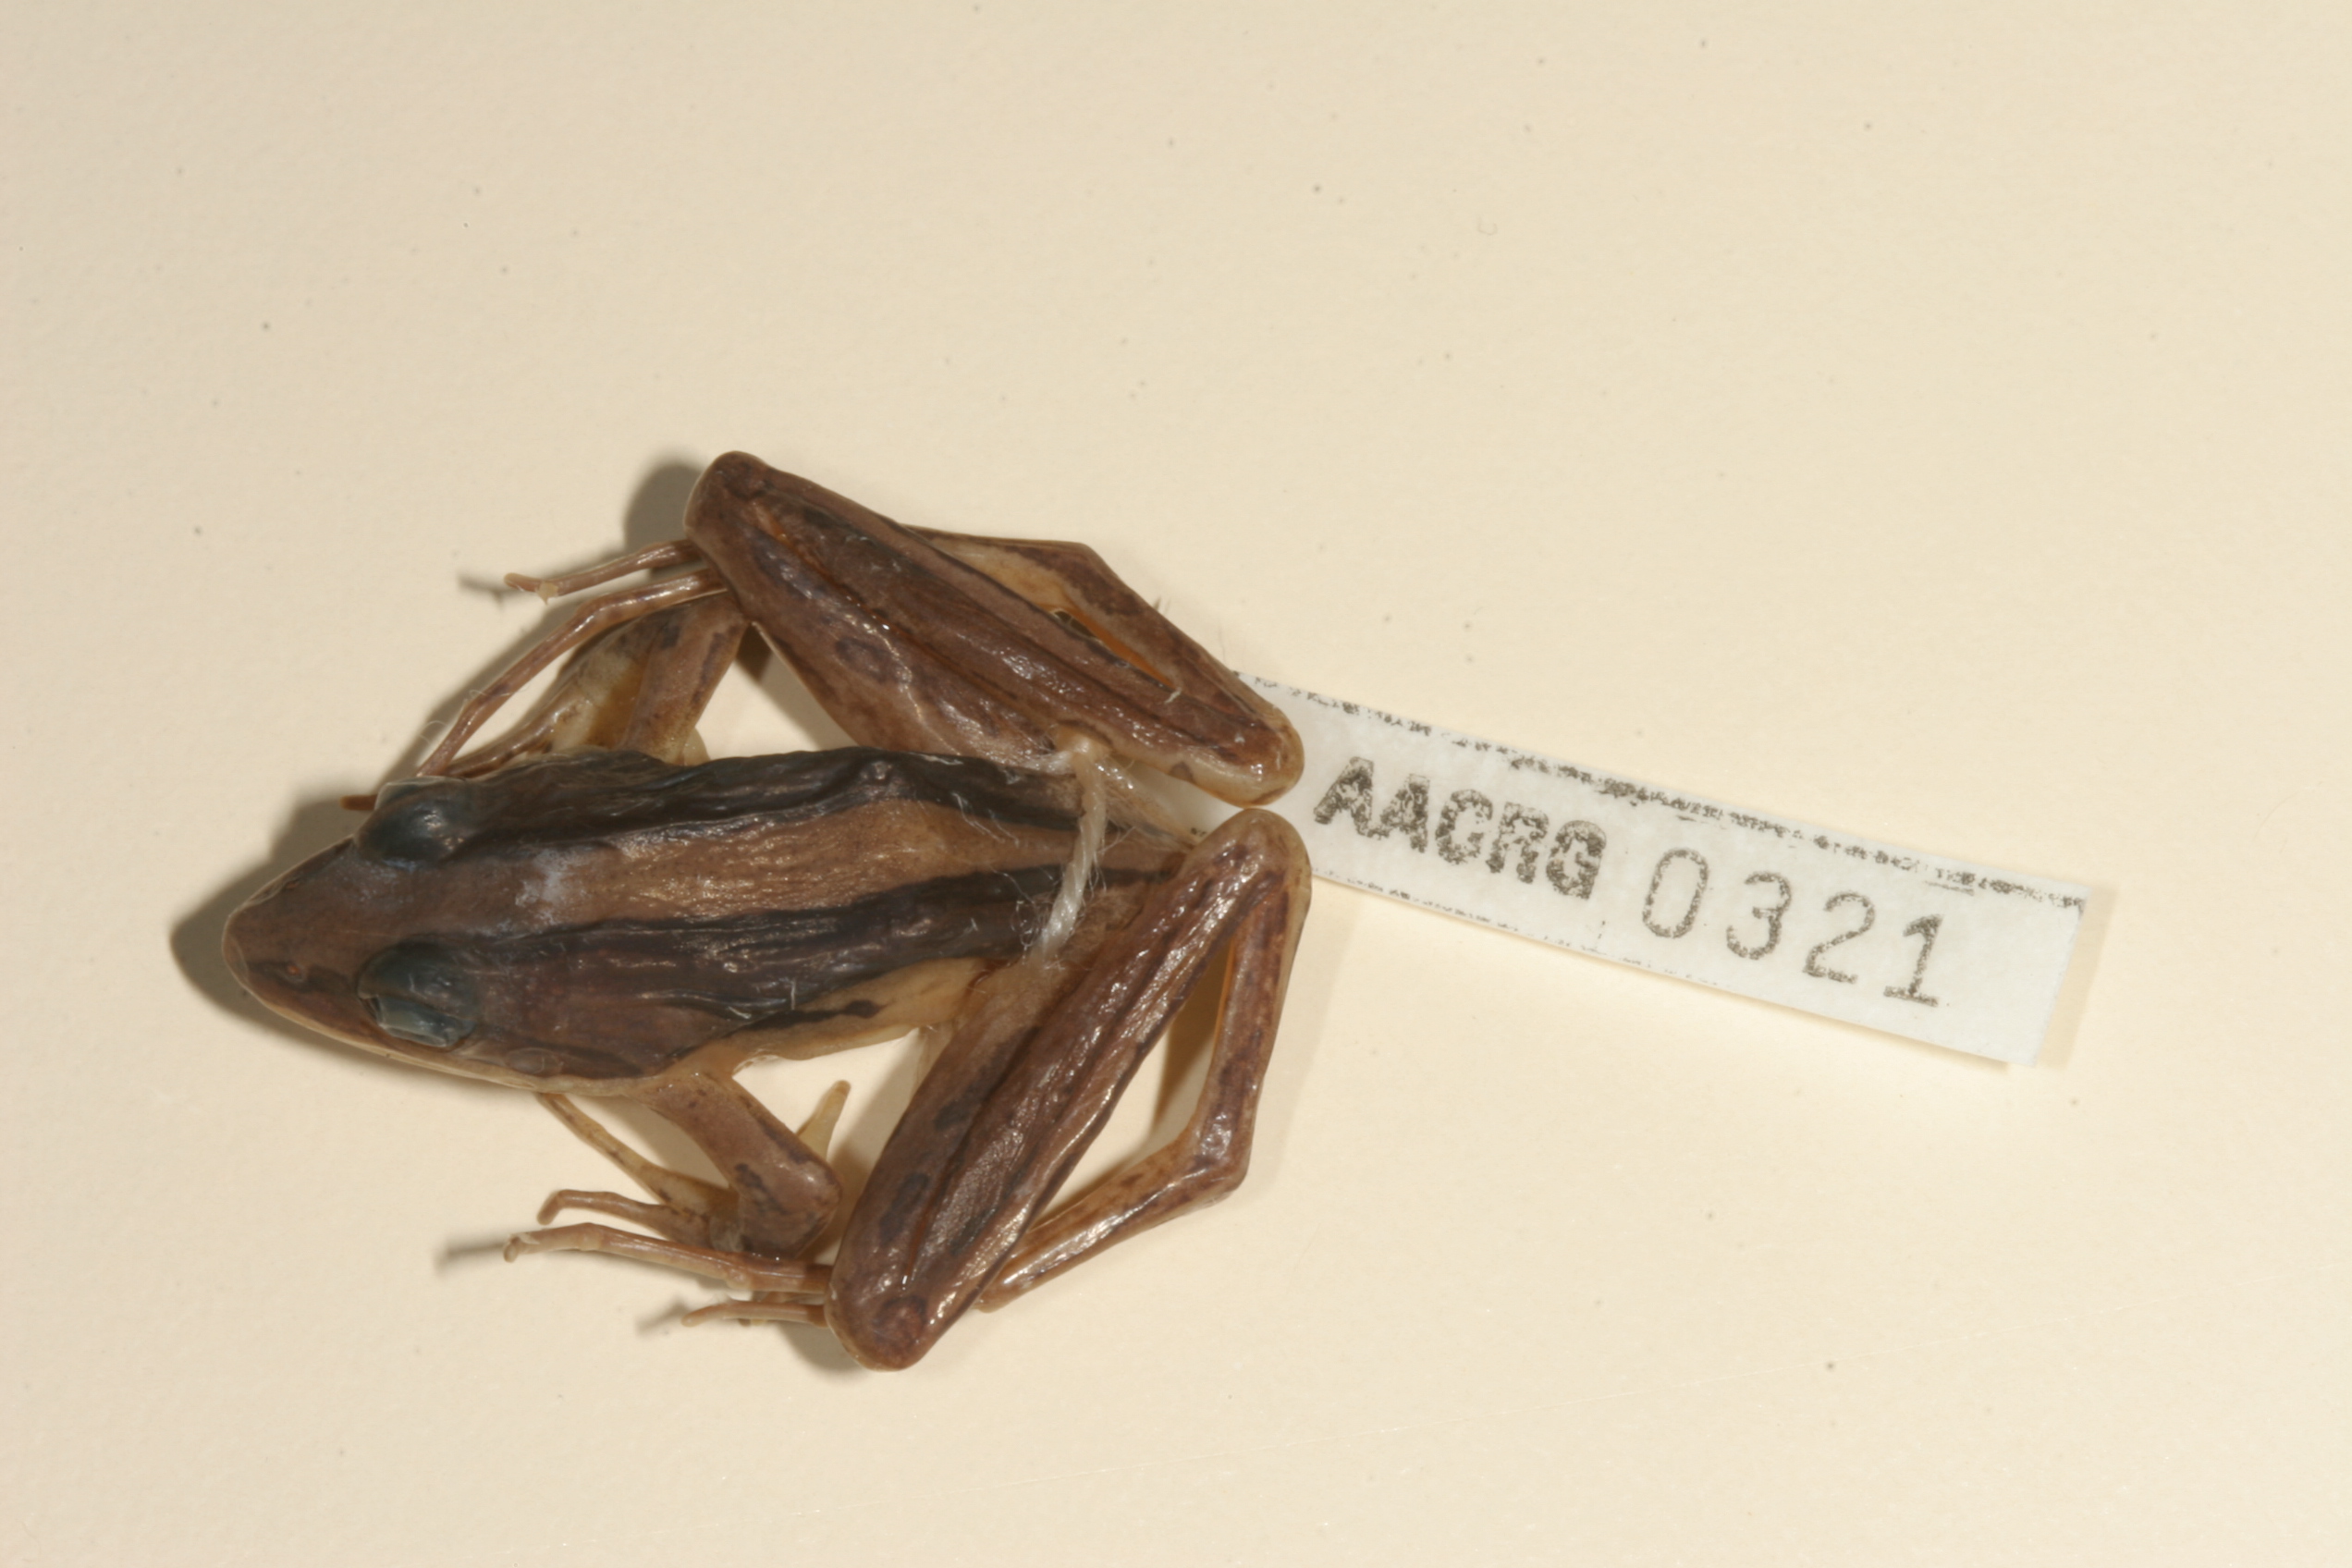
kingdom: Animalia
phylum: Chordata
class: Amphibia
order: Anura
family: Pyxicephalidae
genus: Strongylopus
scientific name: Strongylopus fasciatus
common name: Striped stream frog
